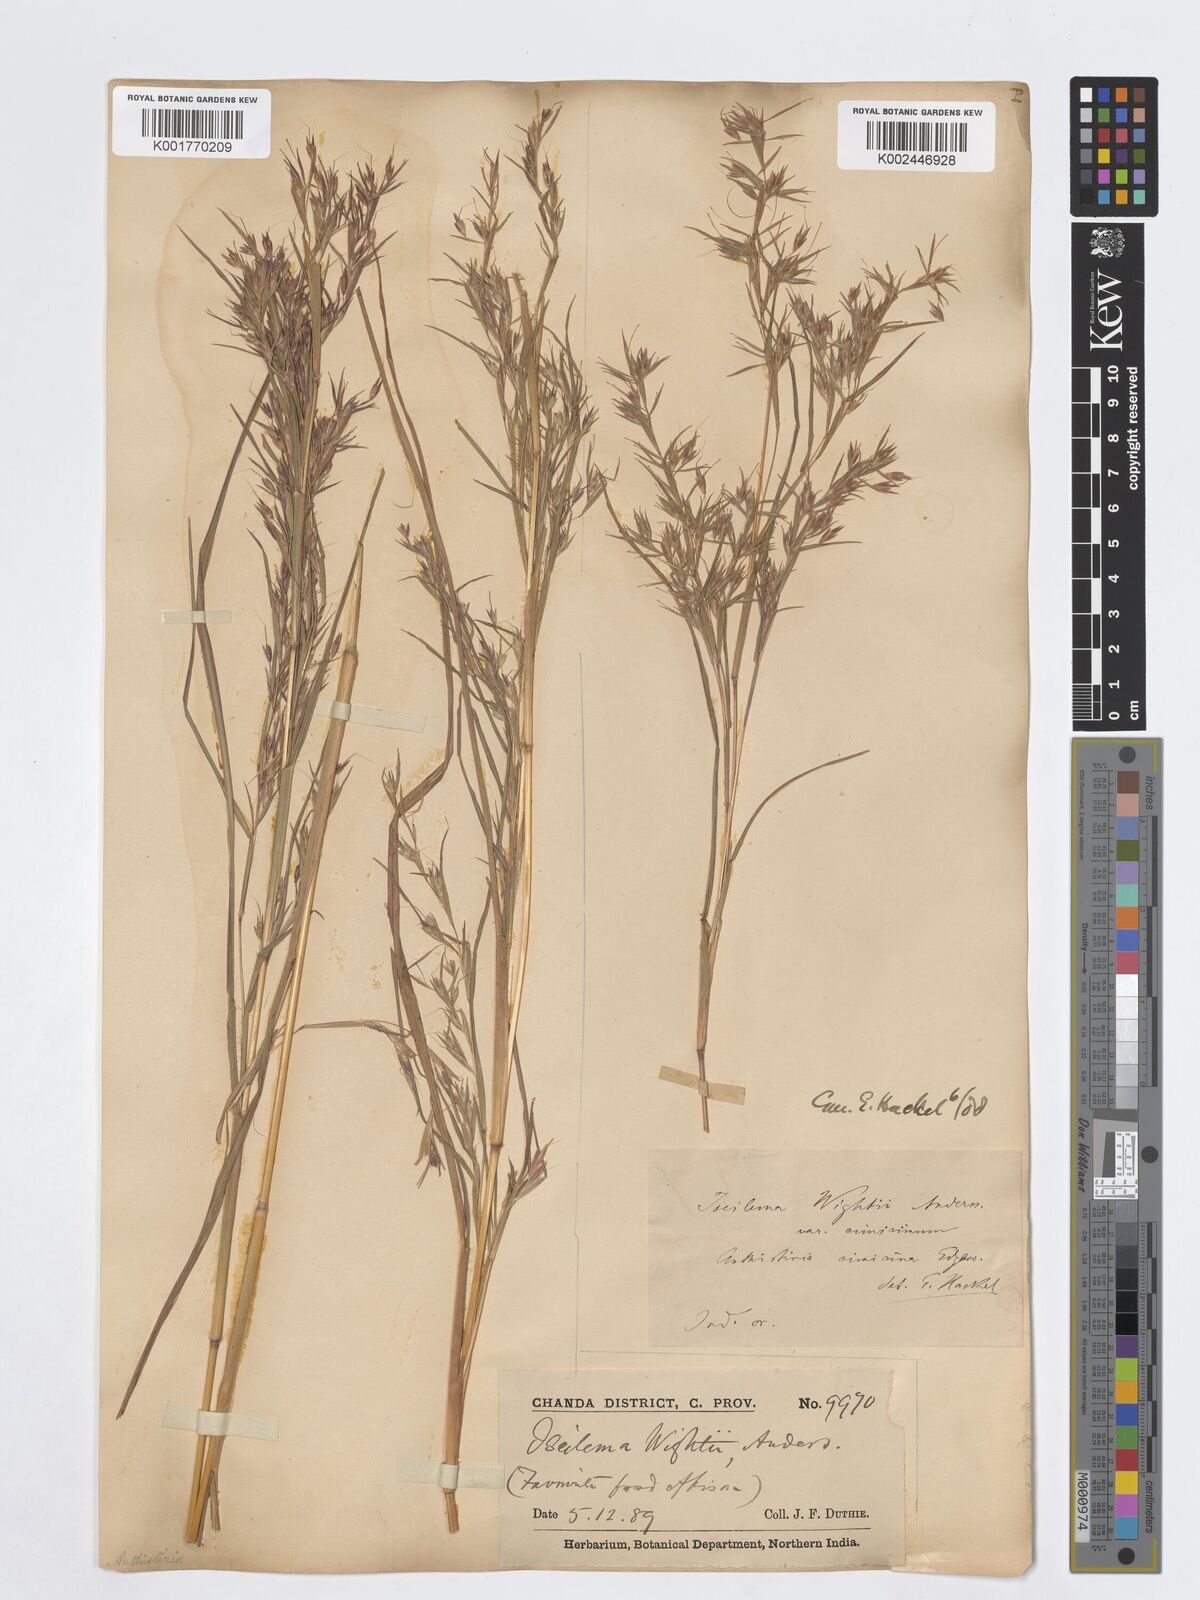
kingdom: Plantae
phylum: Tracheophyta
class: Liliopsida
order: Poales
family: Poaceae
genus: Iseilema
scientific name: Iseilema prostratum
